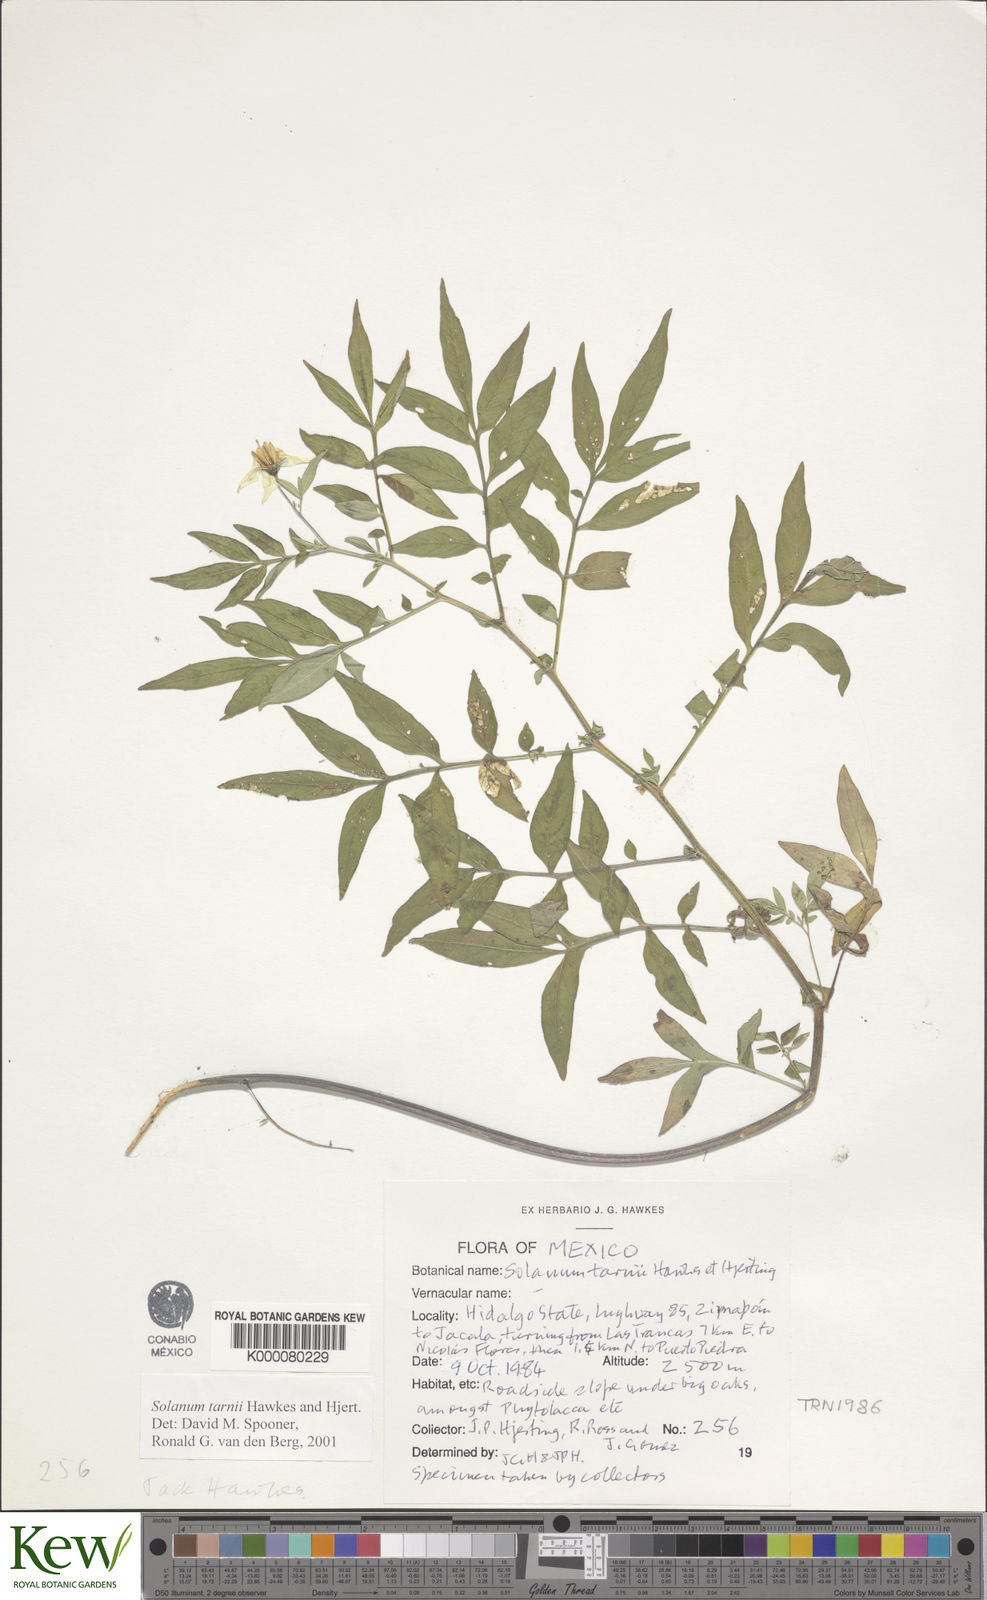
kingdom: Plantae
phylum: Tracheophyta
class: Magnoliopsida
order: Solanales
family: Solanaceae
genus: Solanum
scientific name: Solanum tarnii
